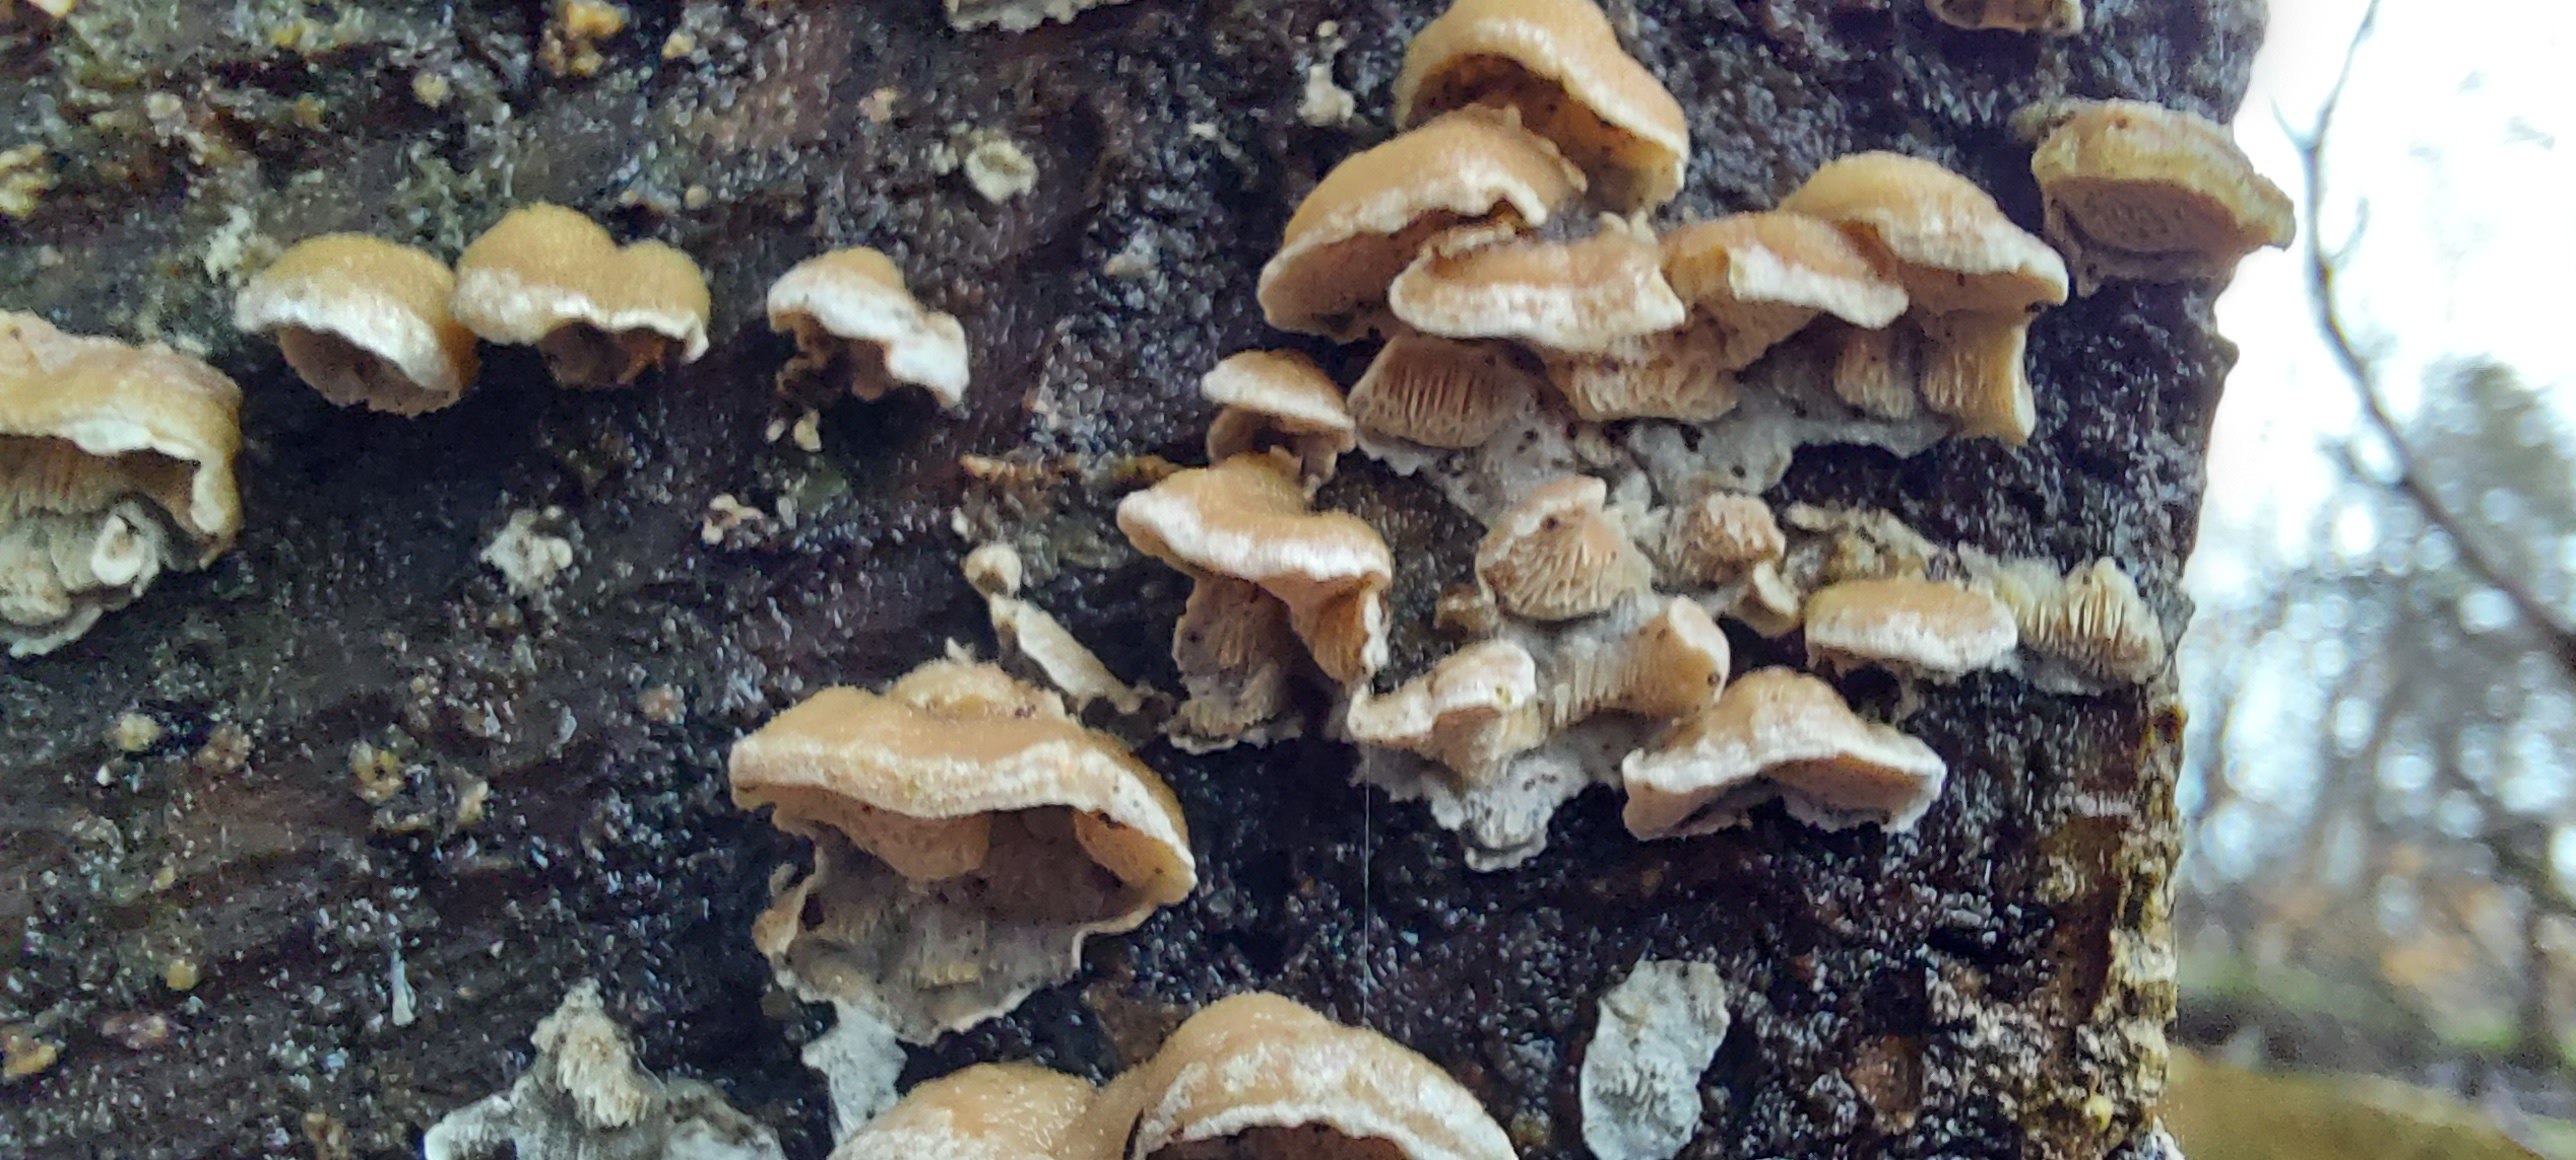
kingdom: Fungi
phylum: Basidiomycota
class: Agaricomycetes
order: Polyporales
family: Incrustoporiaceae
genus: Skeletocutis
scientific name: Skeletocutis
